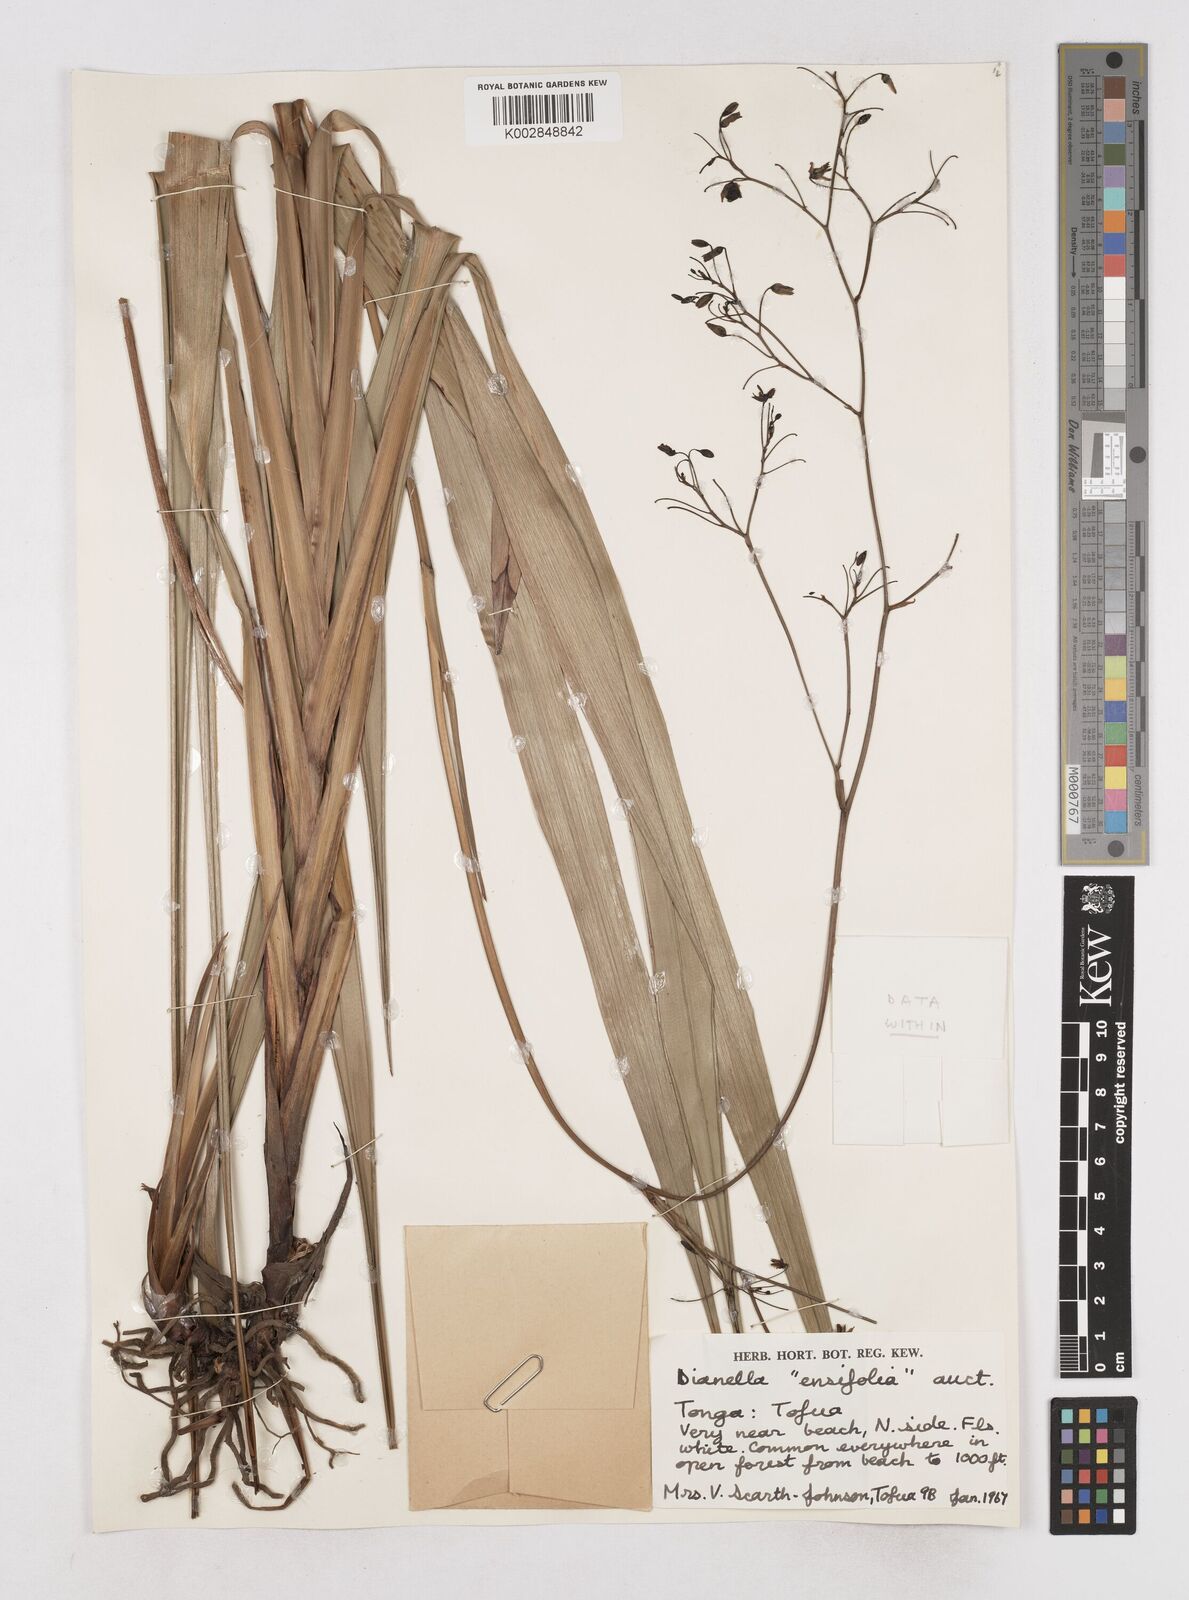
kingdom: Plantae
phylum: Tracheophyta
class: Liliopsida
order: Asparagales
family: Asphodelaceae
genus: Dianella
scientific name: Dianella intermedia
